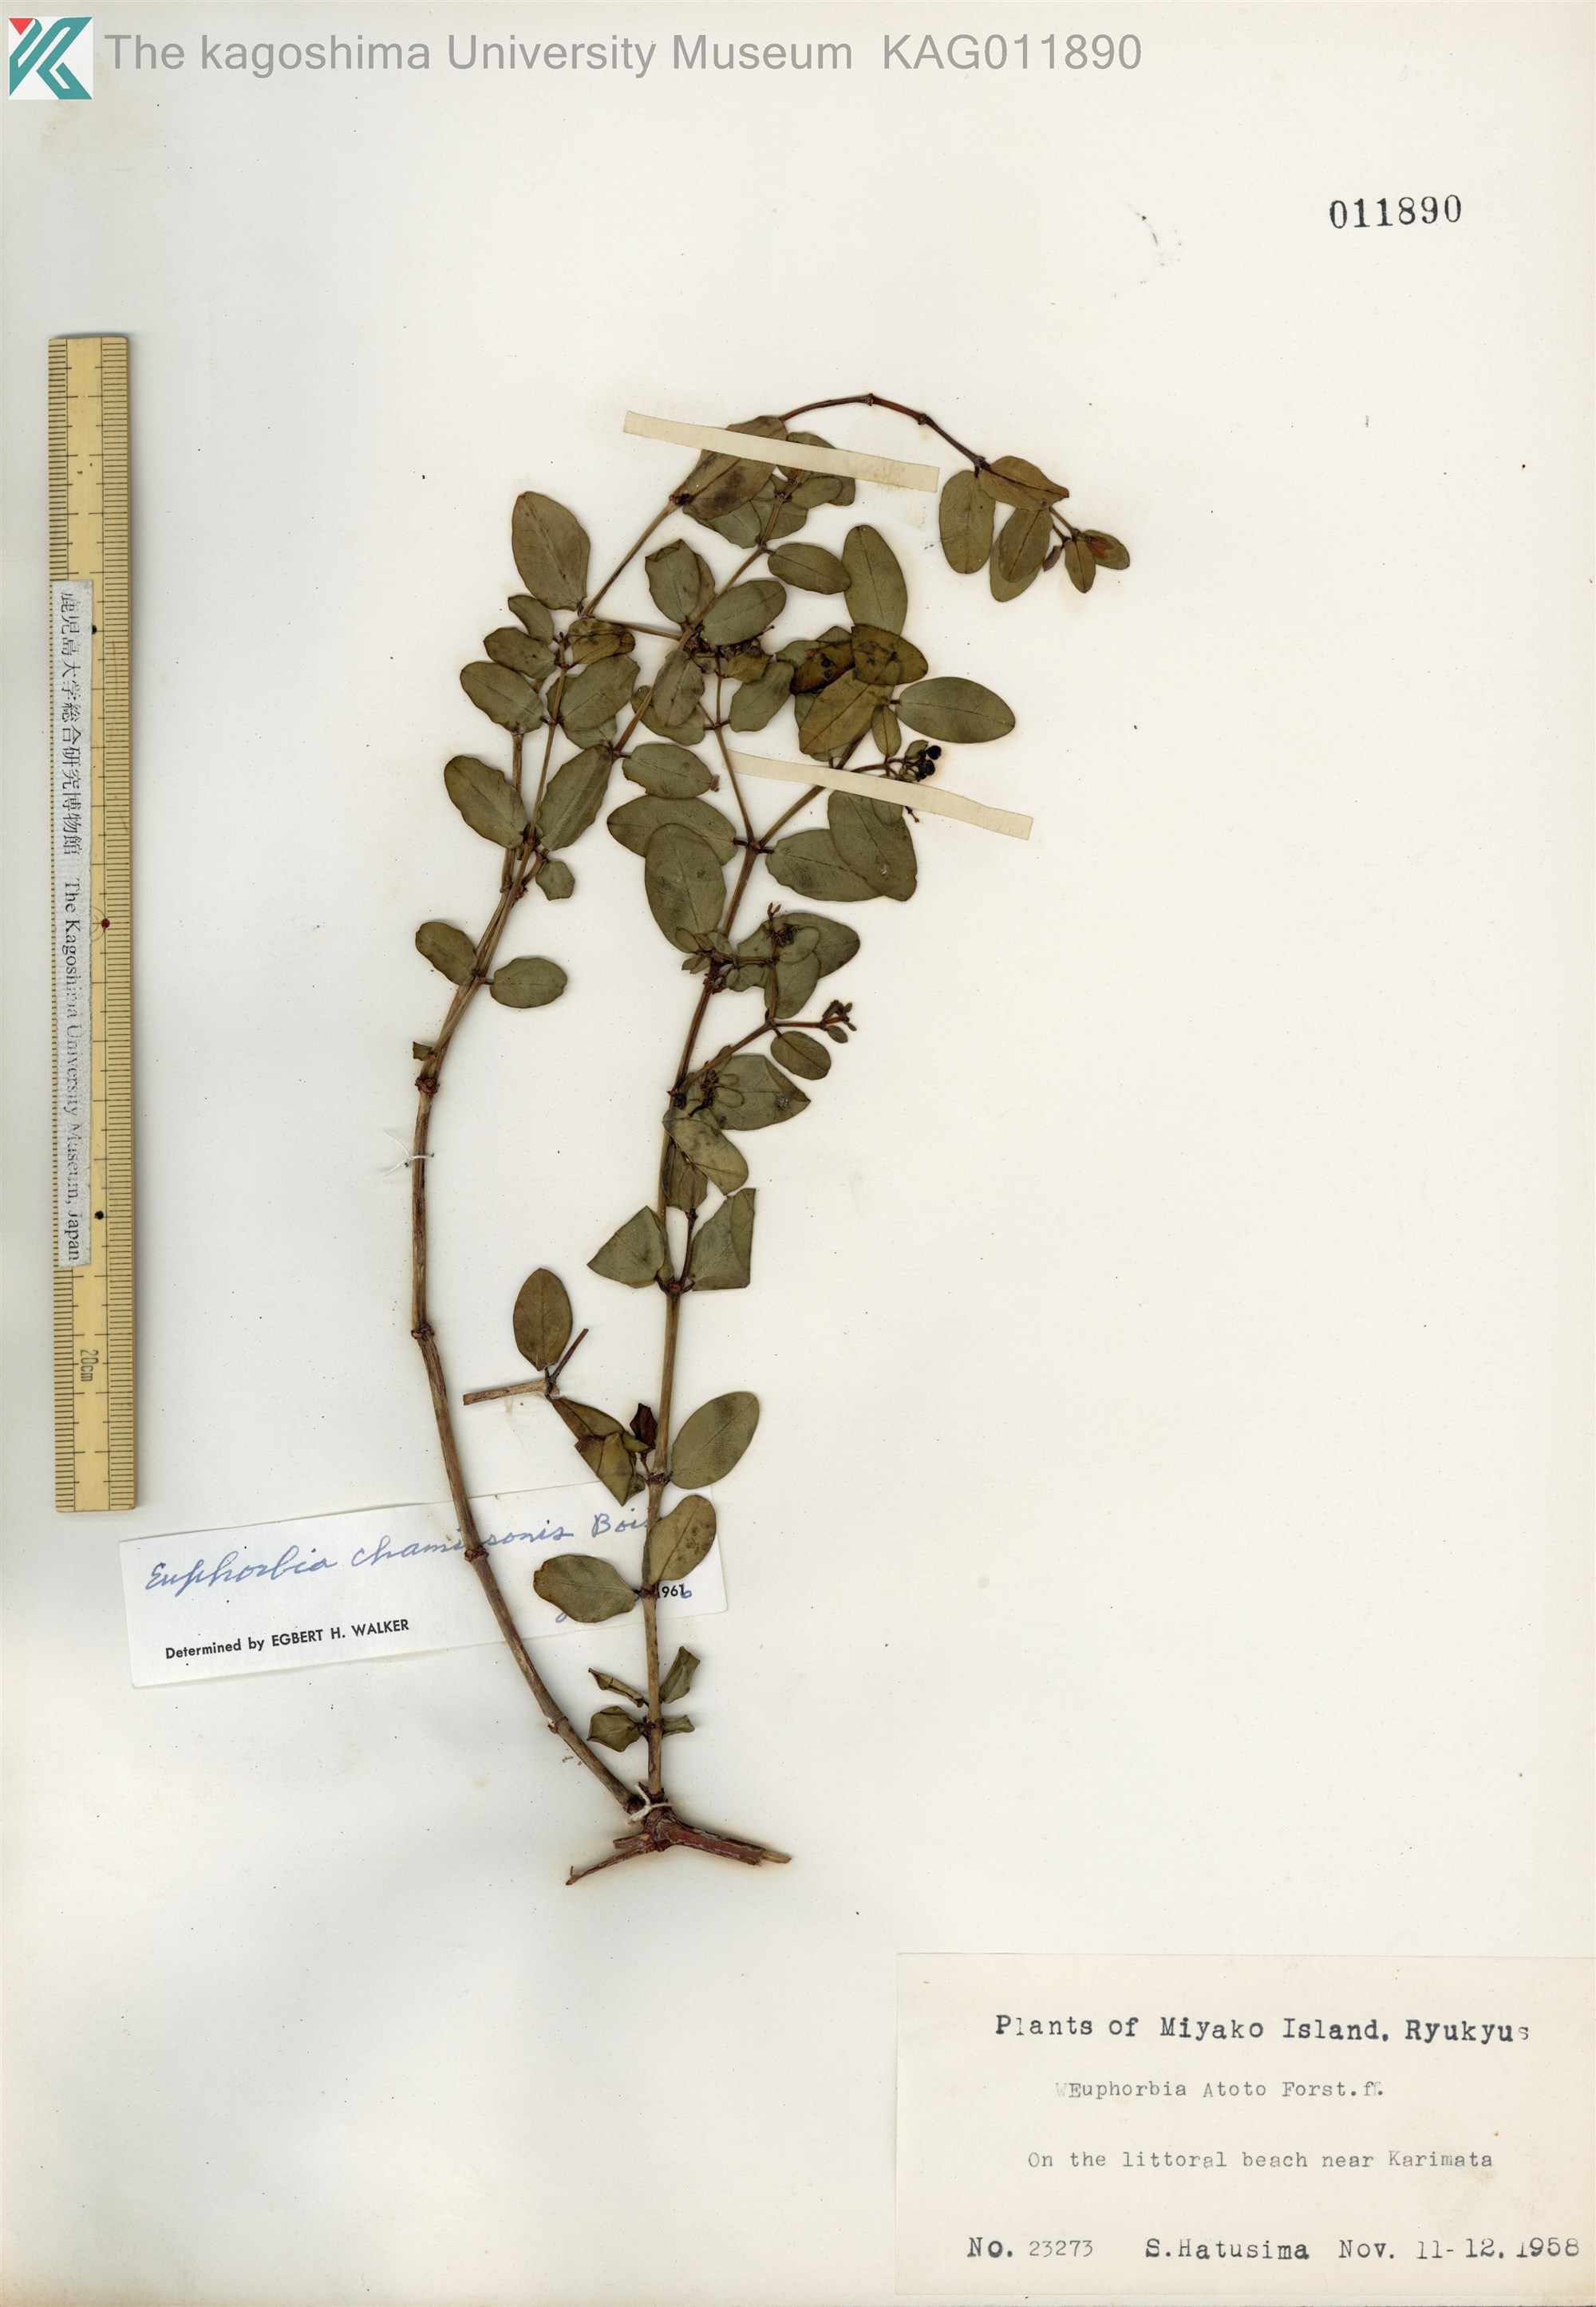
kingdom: Plantae
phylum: Tracheophyta
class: Magnoliopsida
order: Malpighiales
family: Euphorbiaceae
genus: Euphorbia
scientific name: Euphorbia chamissonis
